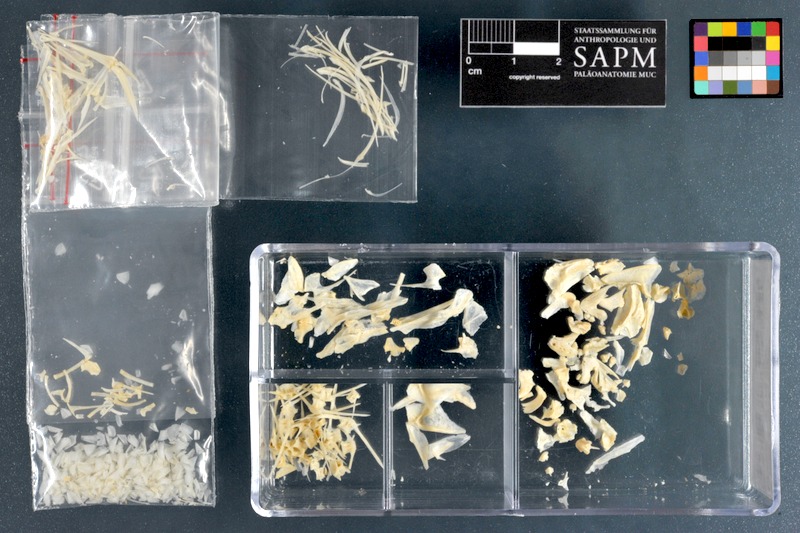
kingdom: Animalia
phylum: Chordata
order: Perciformes
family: Sparidae
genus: Diplodus
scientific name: Diplodus noct
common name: Arabian pinfish
